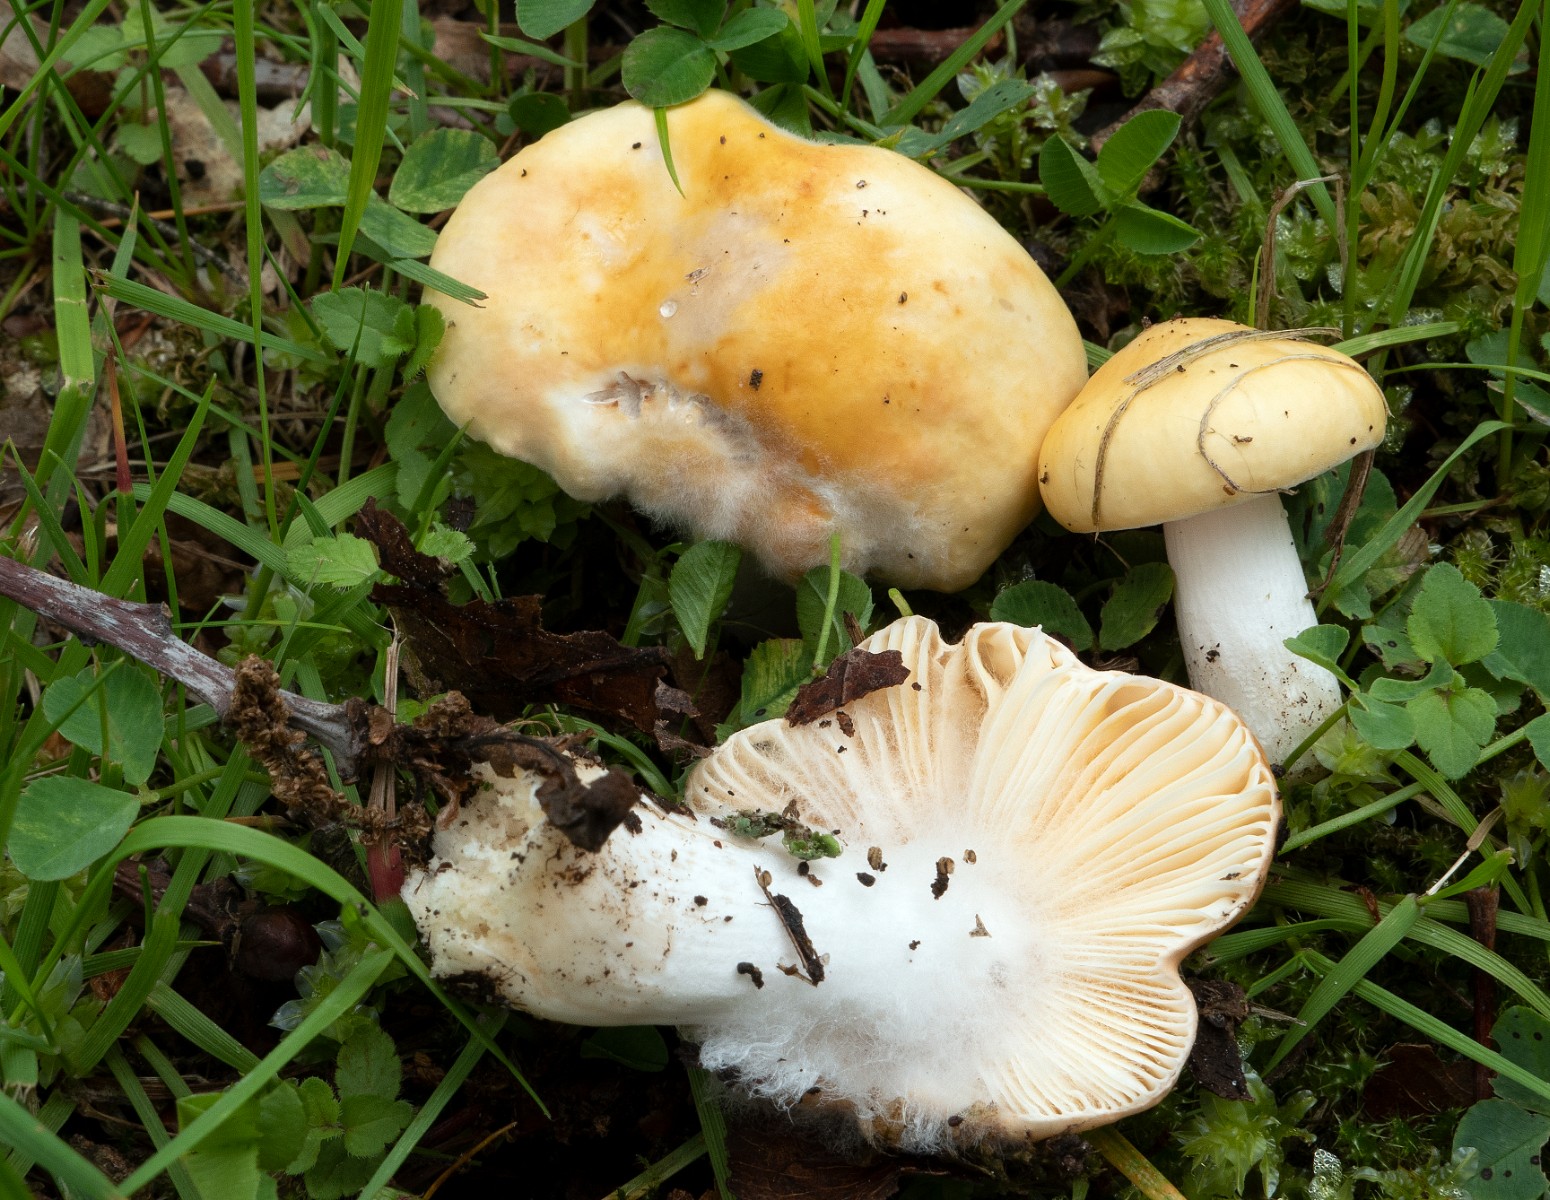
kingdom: Fungi
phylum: Basidiomycota
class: Agaricomycetes
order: Russulales
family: Russulaceae
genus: Russula
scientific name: Russula risigallina
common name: abrikos-skørhat
